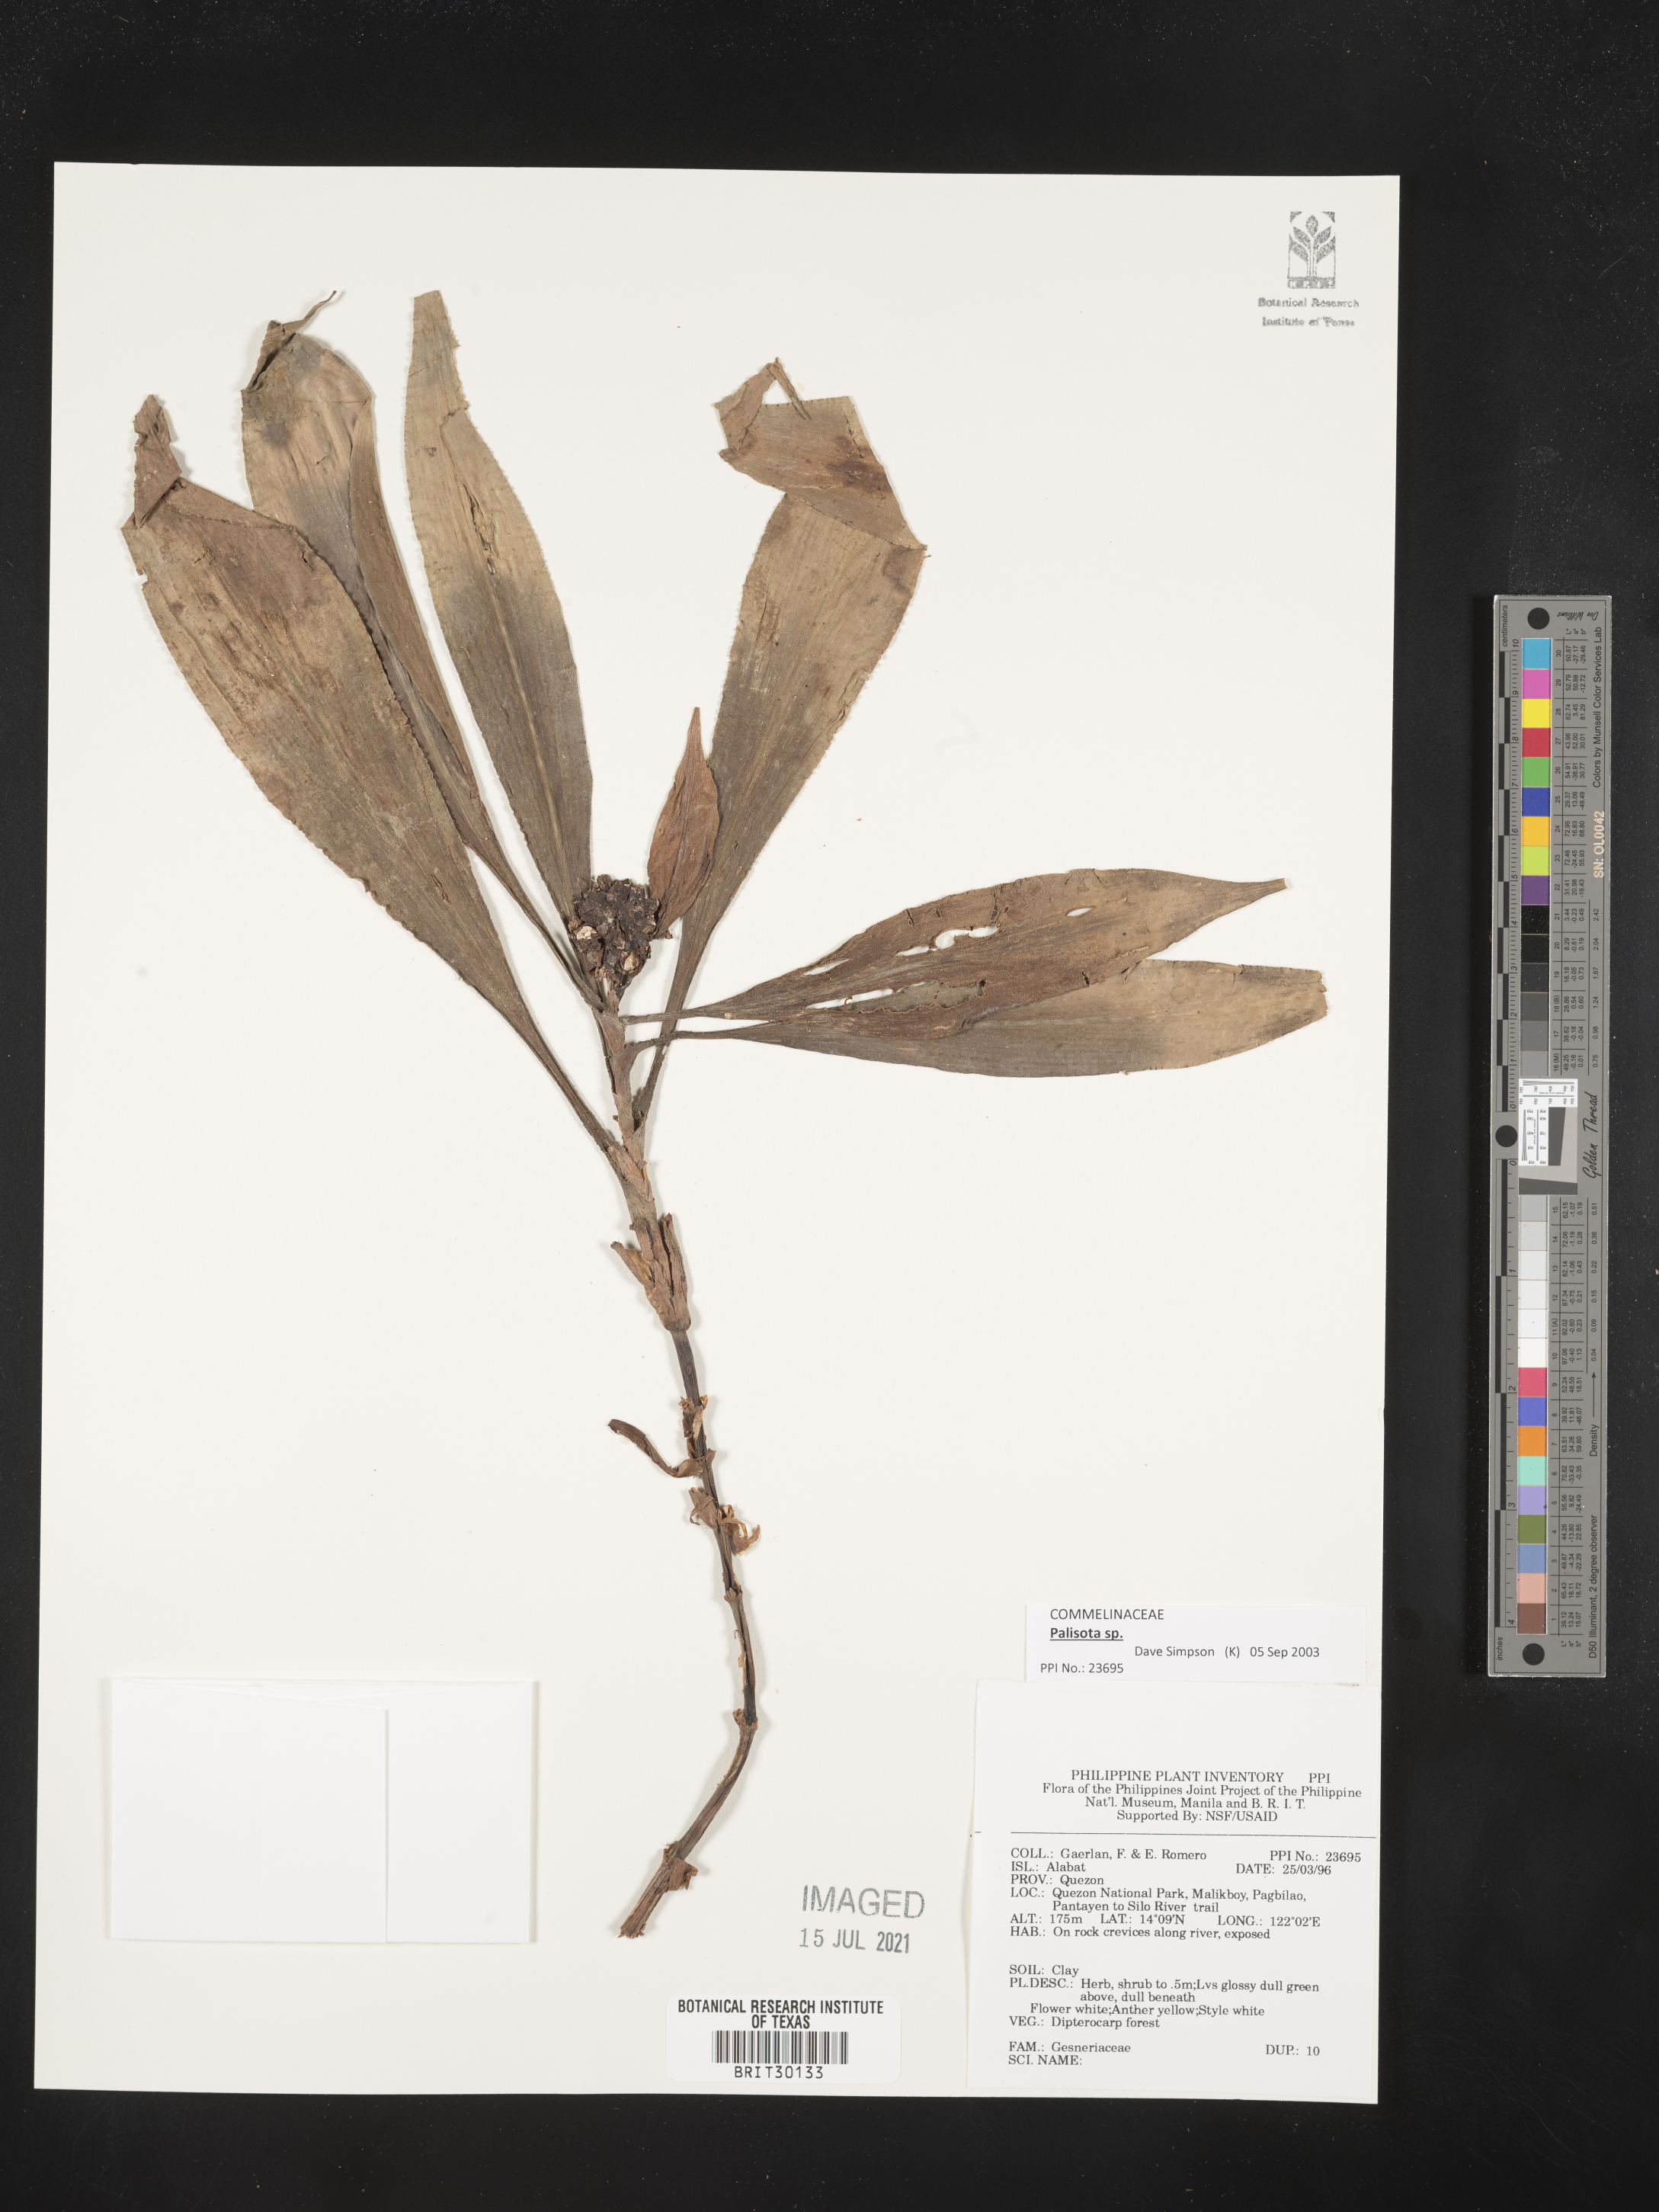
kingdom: Plantae
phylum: Tracheophyta
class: Magnoliopsida
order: Lamiales
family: Gesneriaceae
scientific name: Gesneriaceae
